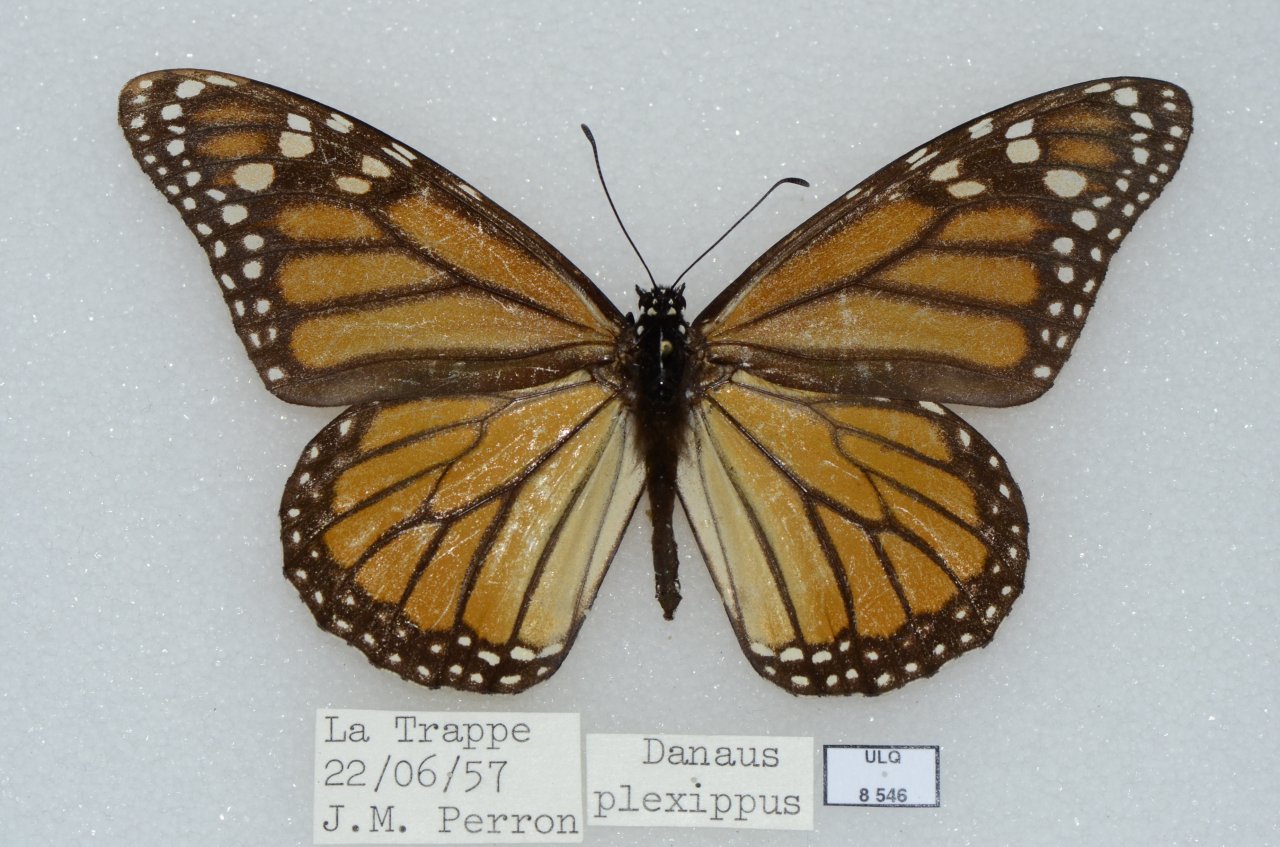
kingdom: Animalia
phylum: Arthropoda
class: Insecta
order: Lepidoptera
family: Nymphalidae
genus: Danaus
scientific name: Danaus plexippus
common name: Monarch
